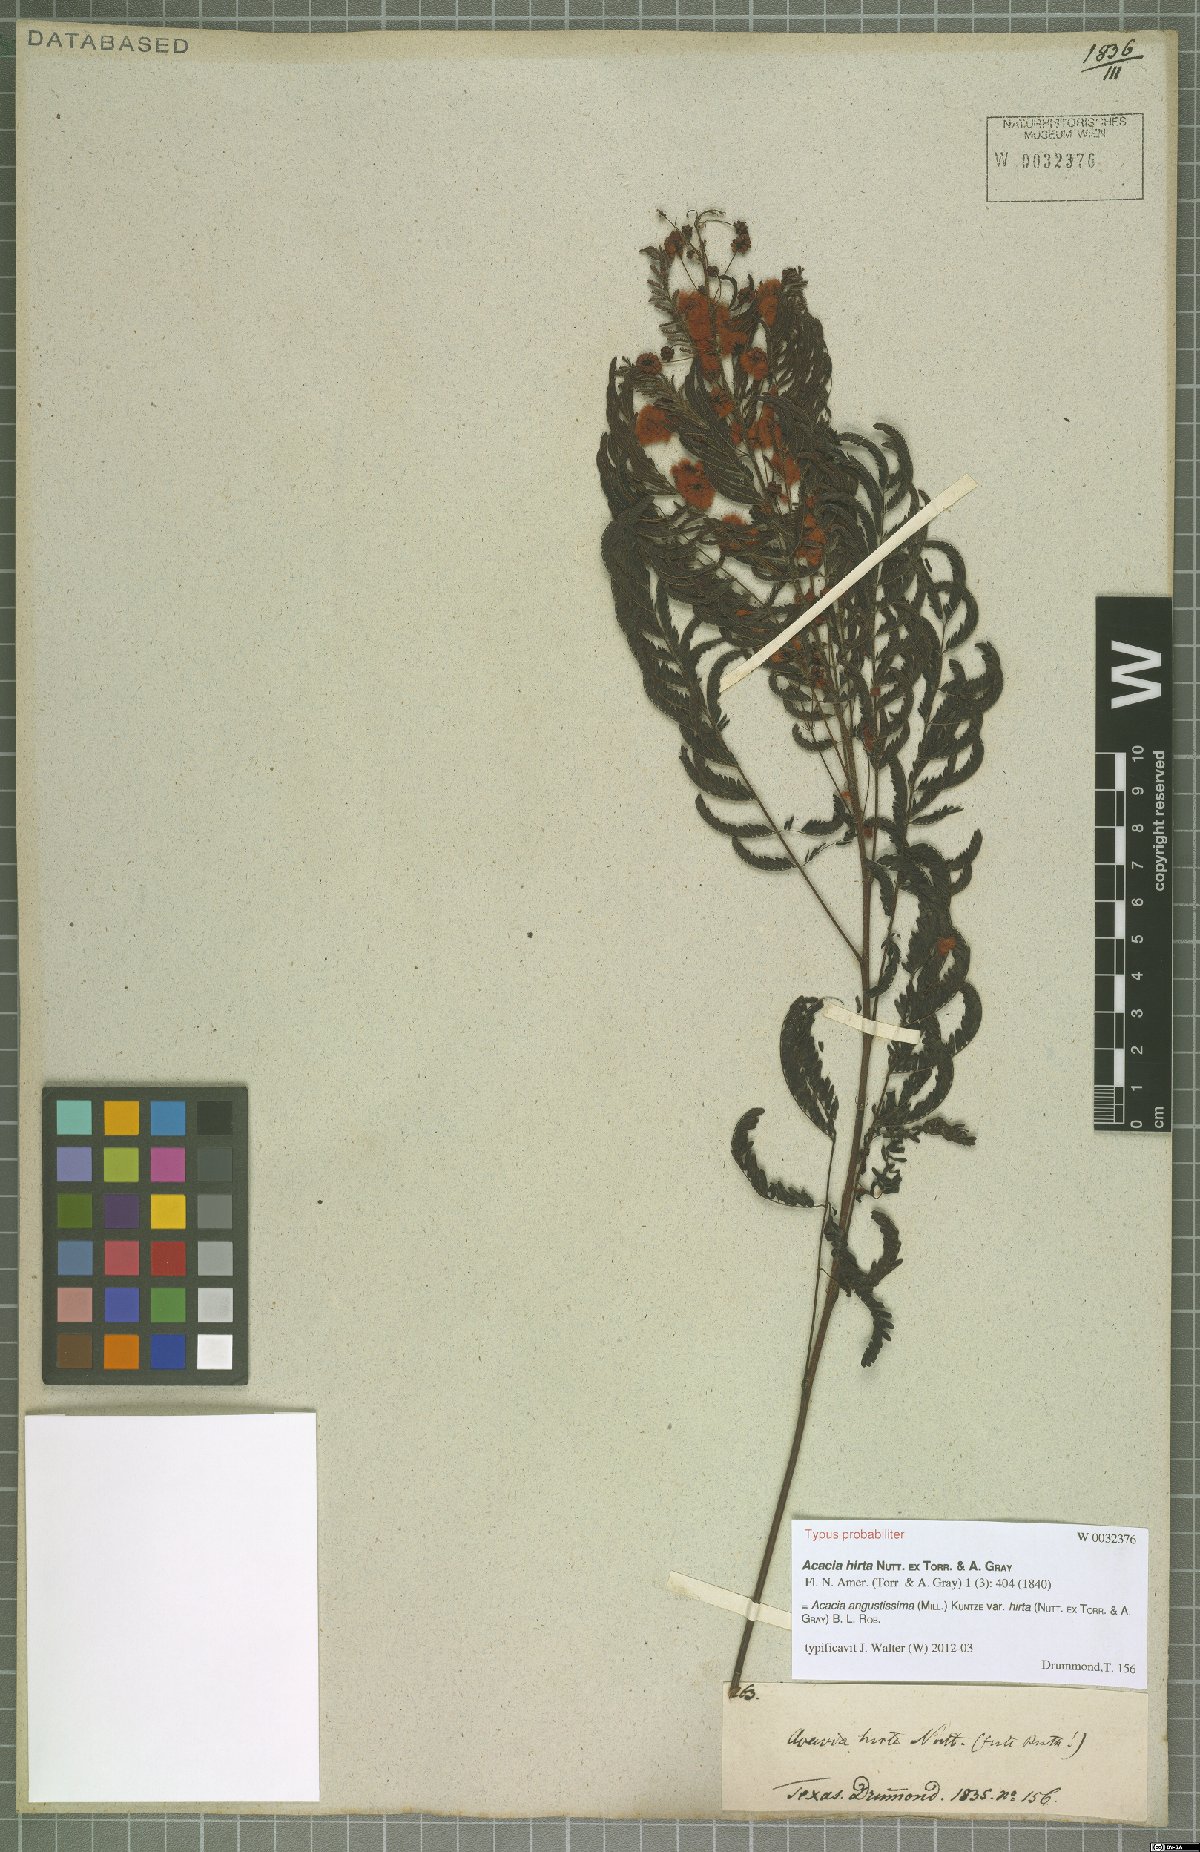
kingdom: Plantae
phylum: Tracheophyta
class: Magnoliopsida
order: Fabales
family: Fabaceae
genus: Acaciella
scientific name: Acaciella angustissima
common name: Prairie acacia
